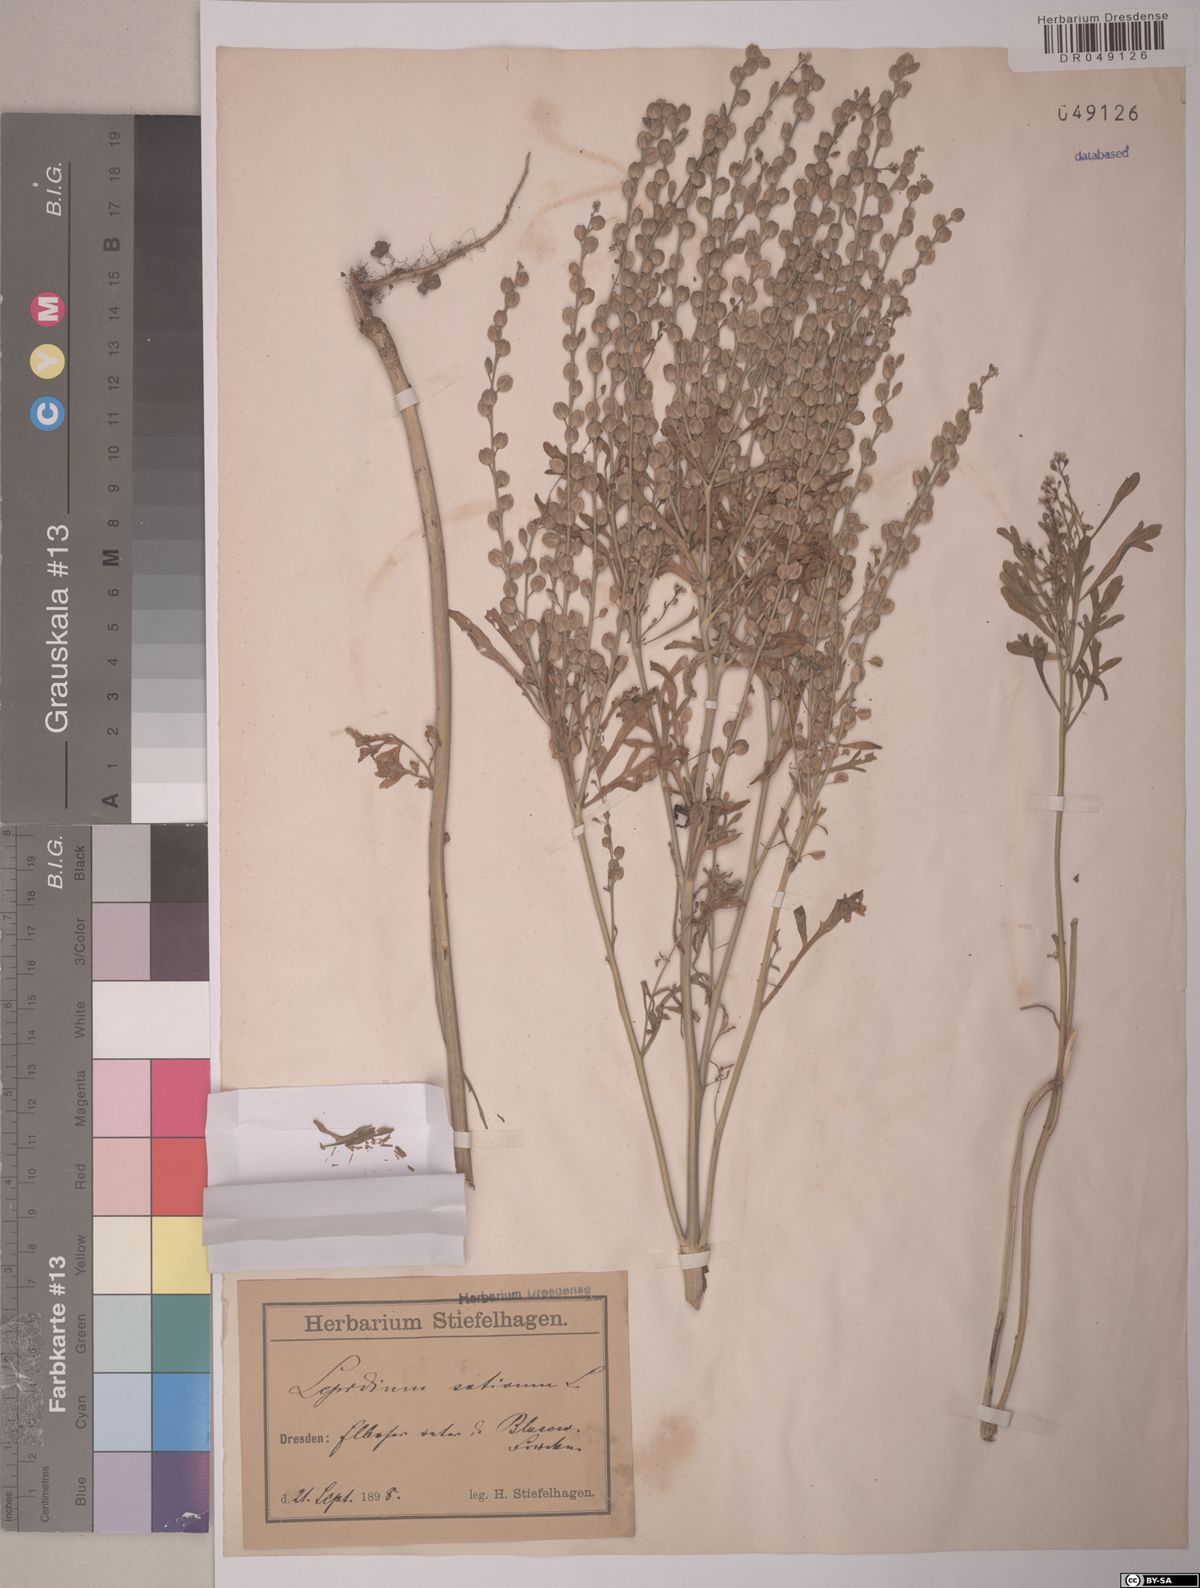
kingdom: Plantae
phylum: Tracheophyta
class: Magnoliopsida
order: Brassicales
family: Brassicaceae
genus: Lepidium
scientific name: Lepidium sativum
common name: Garden cress
